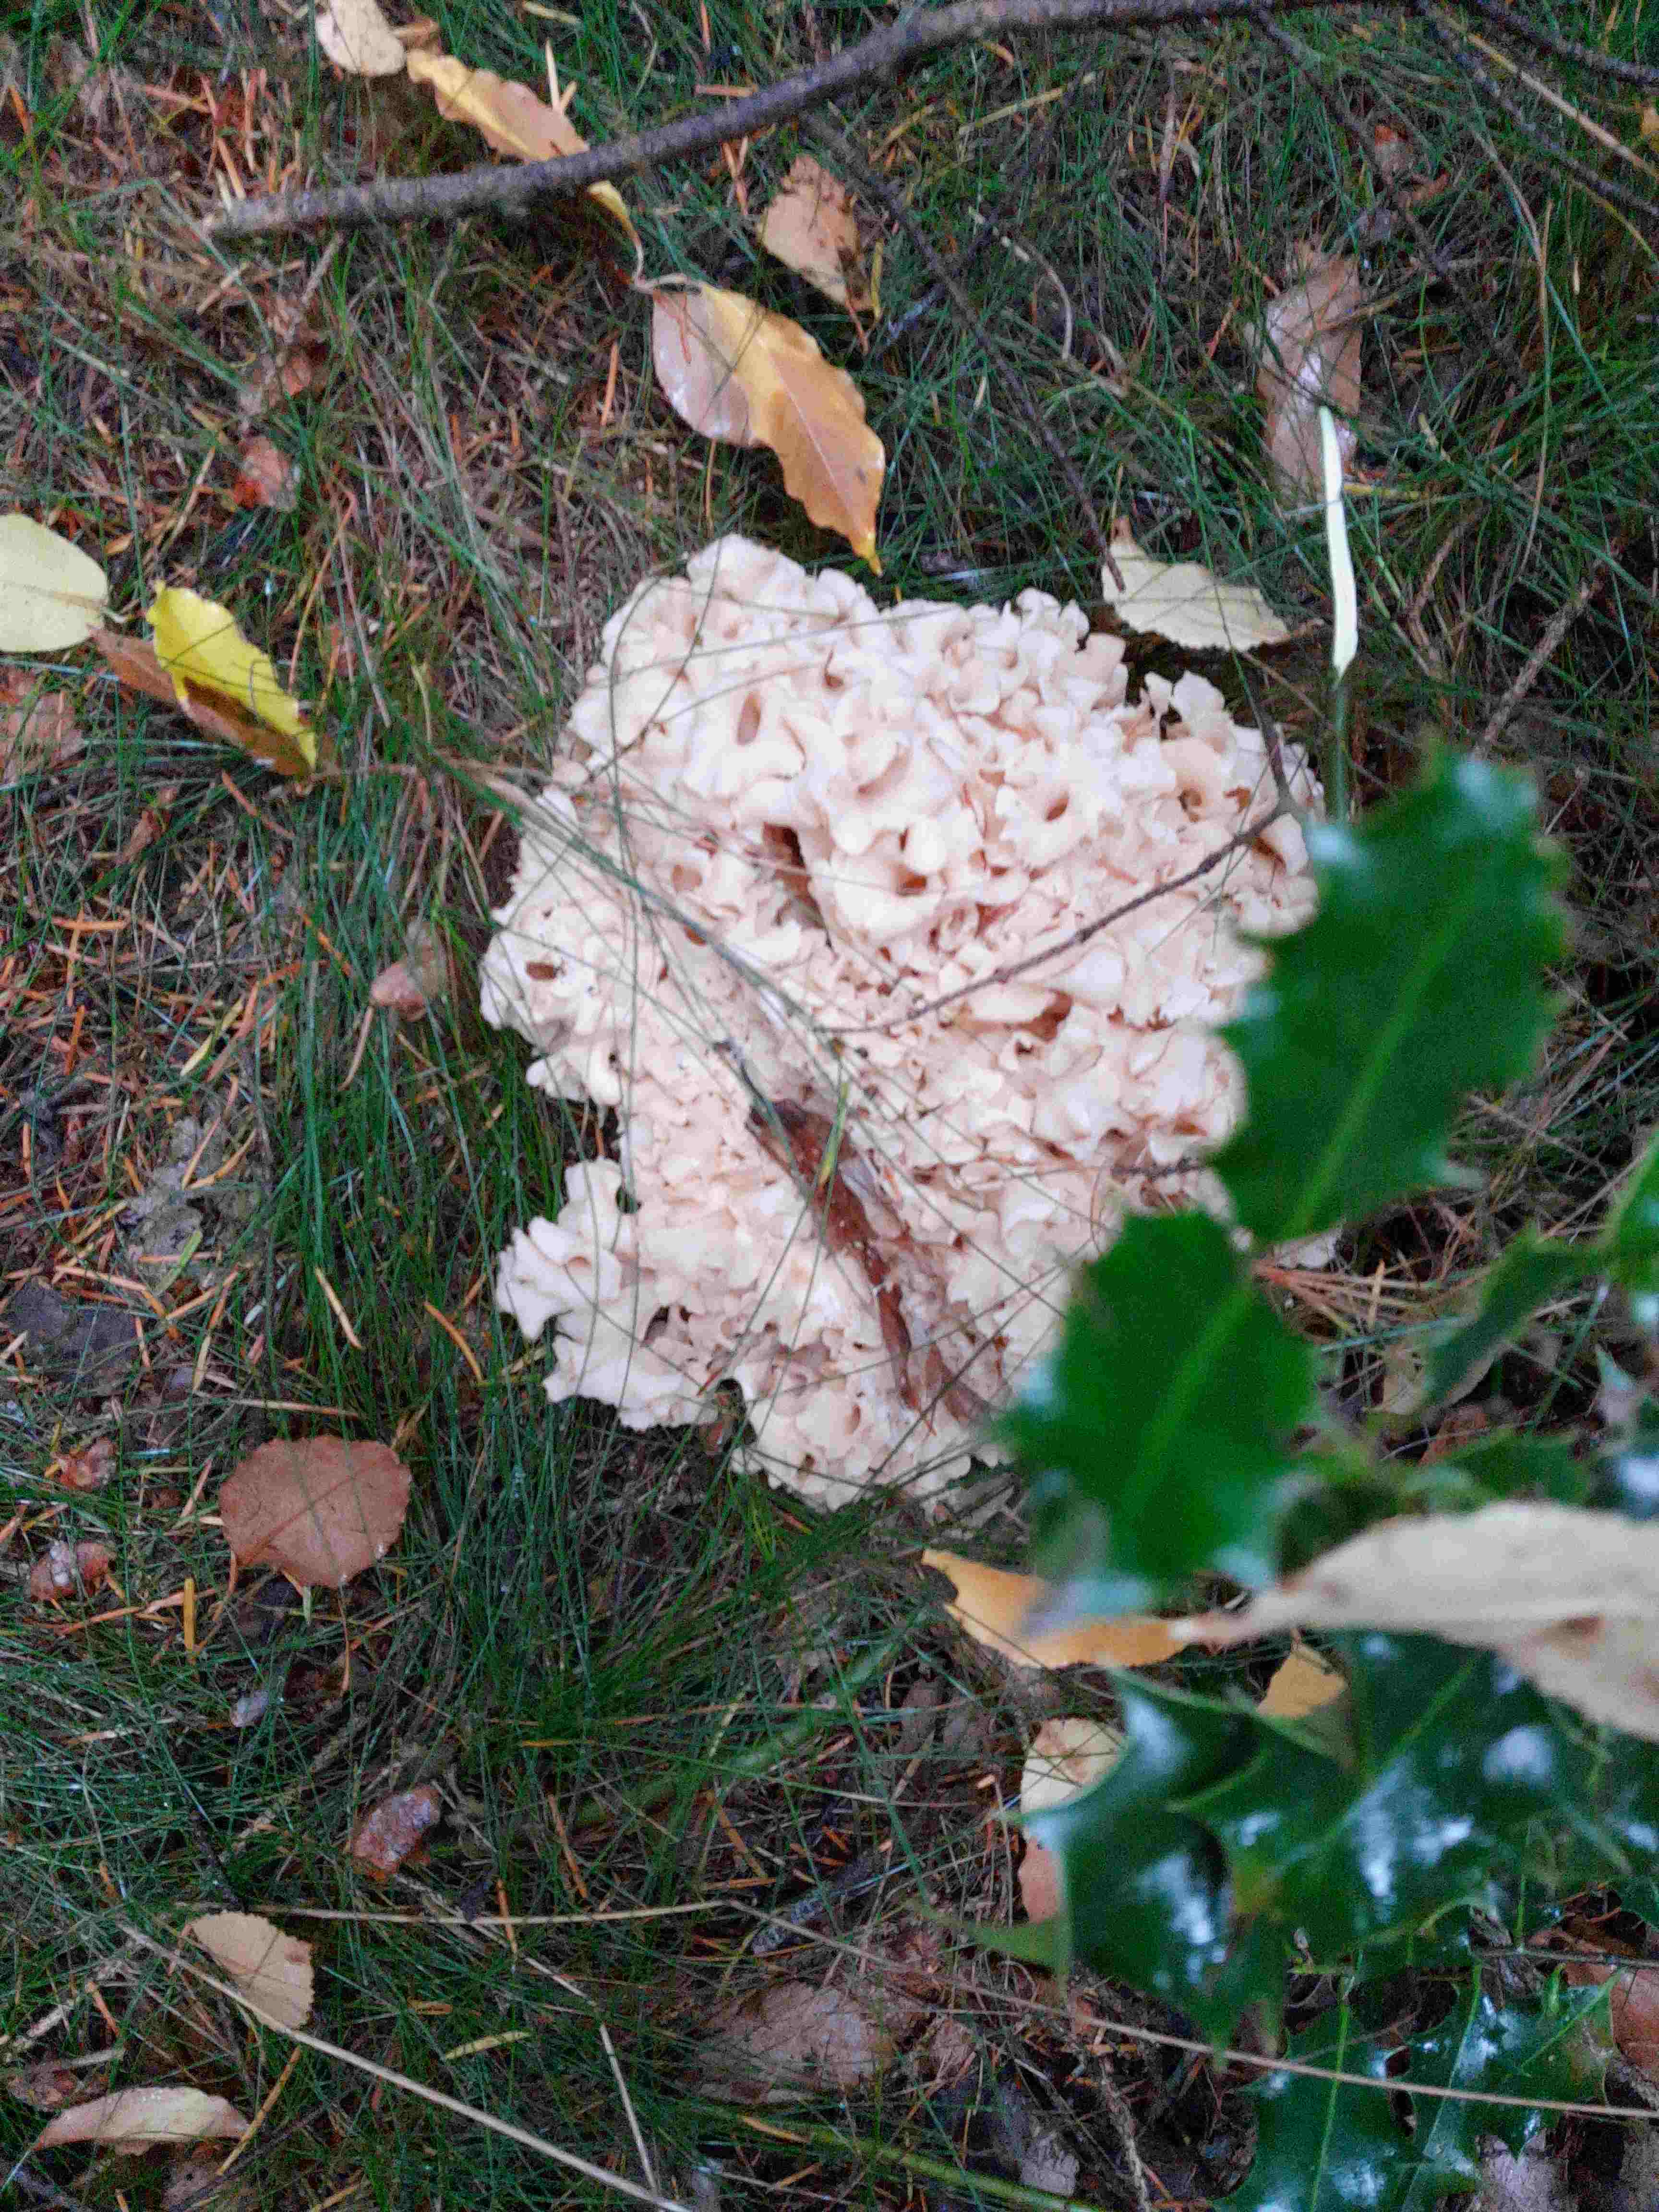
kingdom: Fungi
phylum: Basidiomycota
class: Agaricomycetes
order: Polyporales
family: Sparassidaceae
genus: Sparassis
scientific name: Sparassis crispa
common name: kruset blomkålssvamp
